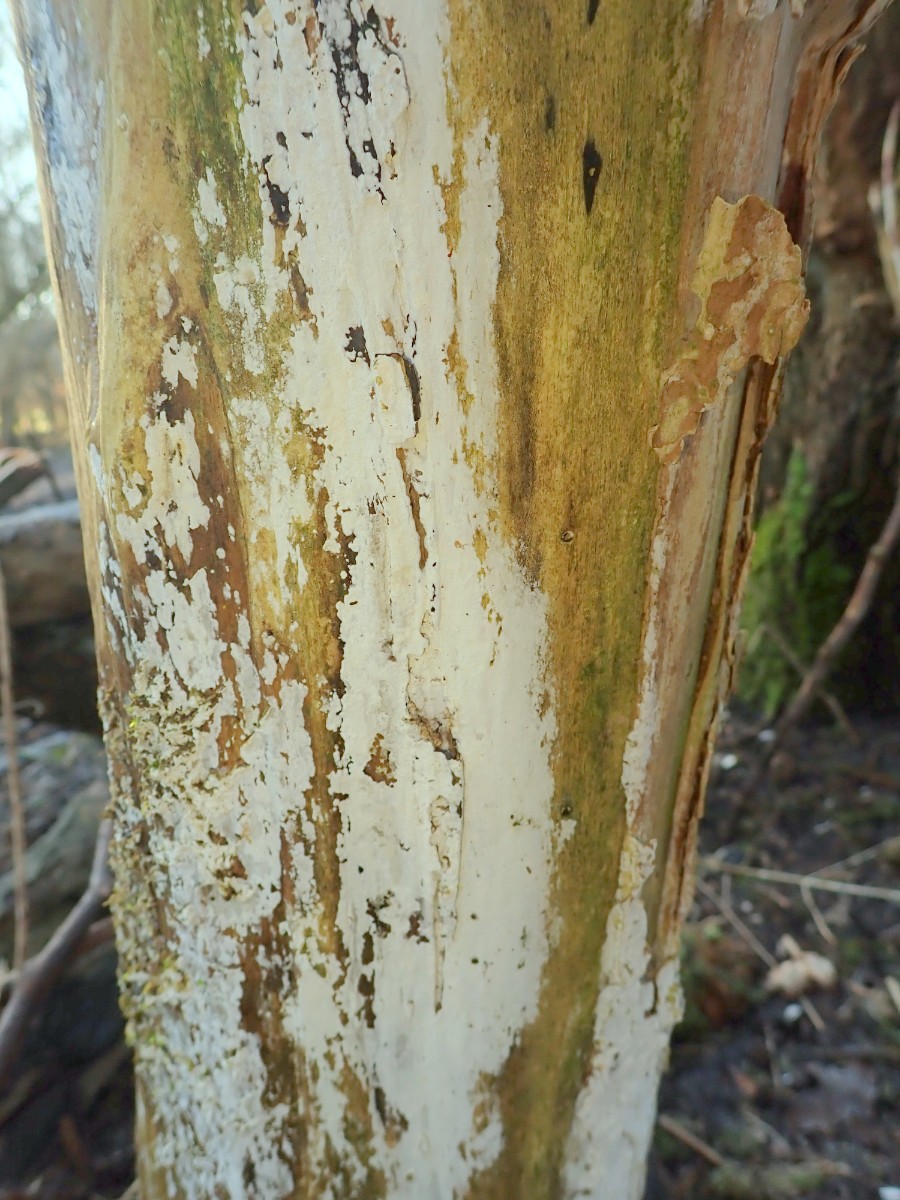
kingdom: Fungi
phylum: Basidiomycota
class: Agaricomycetes
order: Corticiales
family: Corticiaceae
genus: Lyomyces
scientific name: Lyomyces sambuci
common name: almindelig hyldehinde
